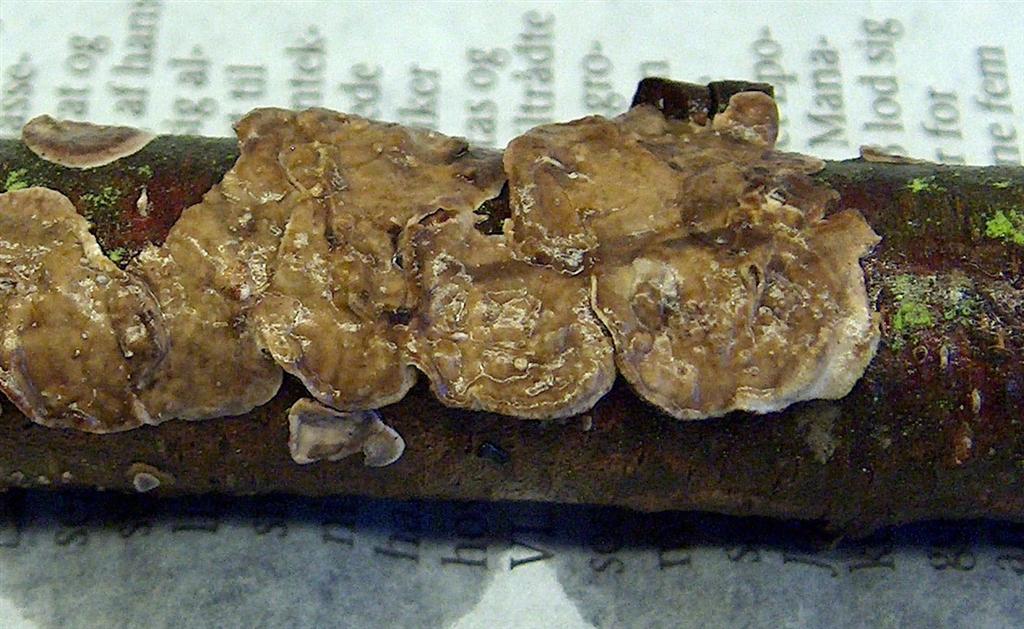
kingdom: Fungi
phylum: Basidiomycota
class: Agaricomycetes
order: Boletales
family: Coniophoraceae
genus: Coniophora
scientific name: Coniophora puteana
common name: gul tømmersvamp
